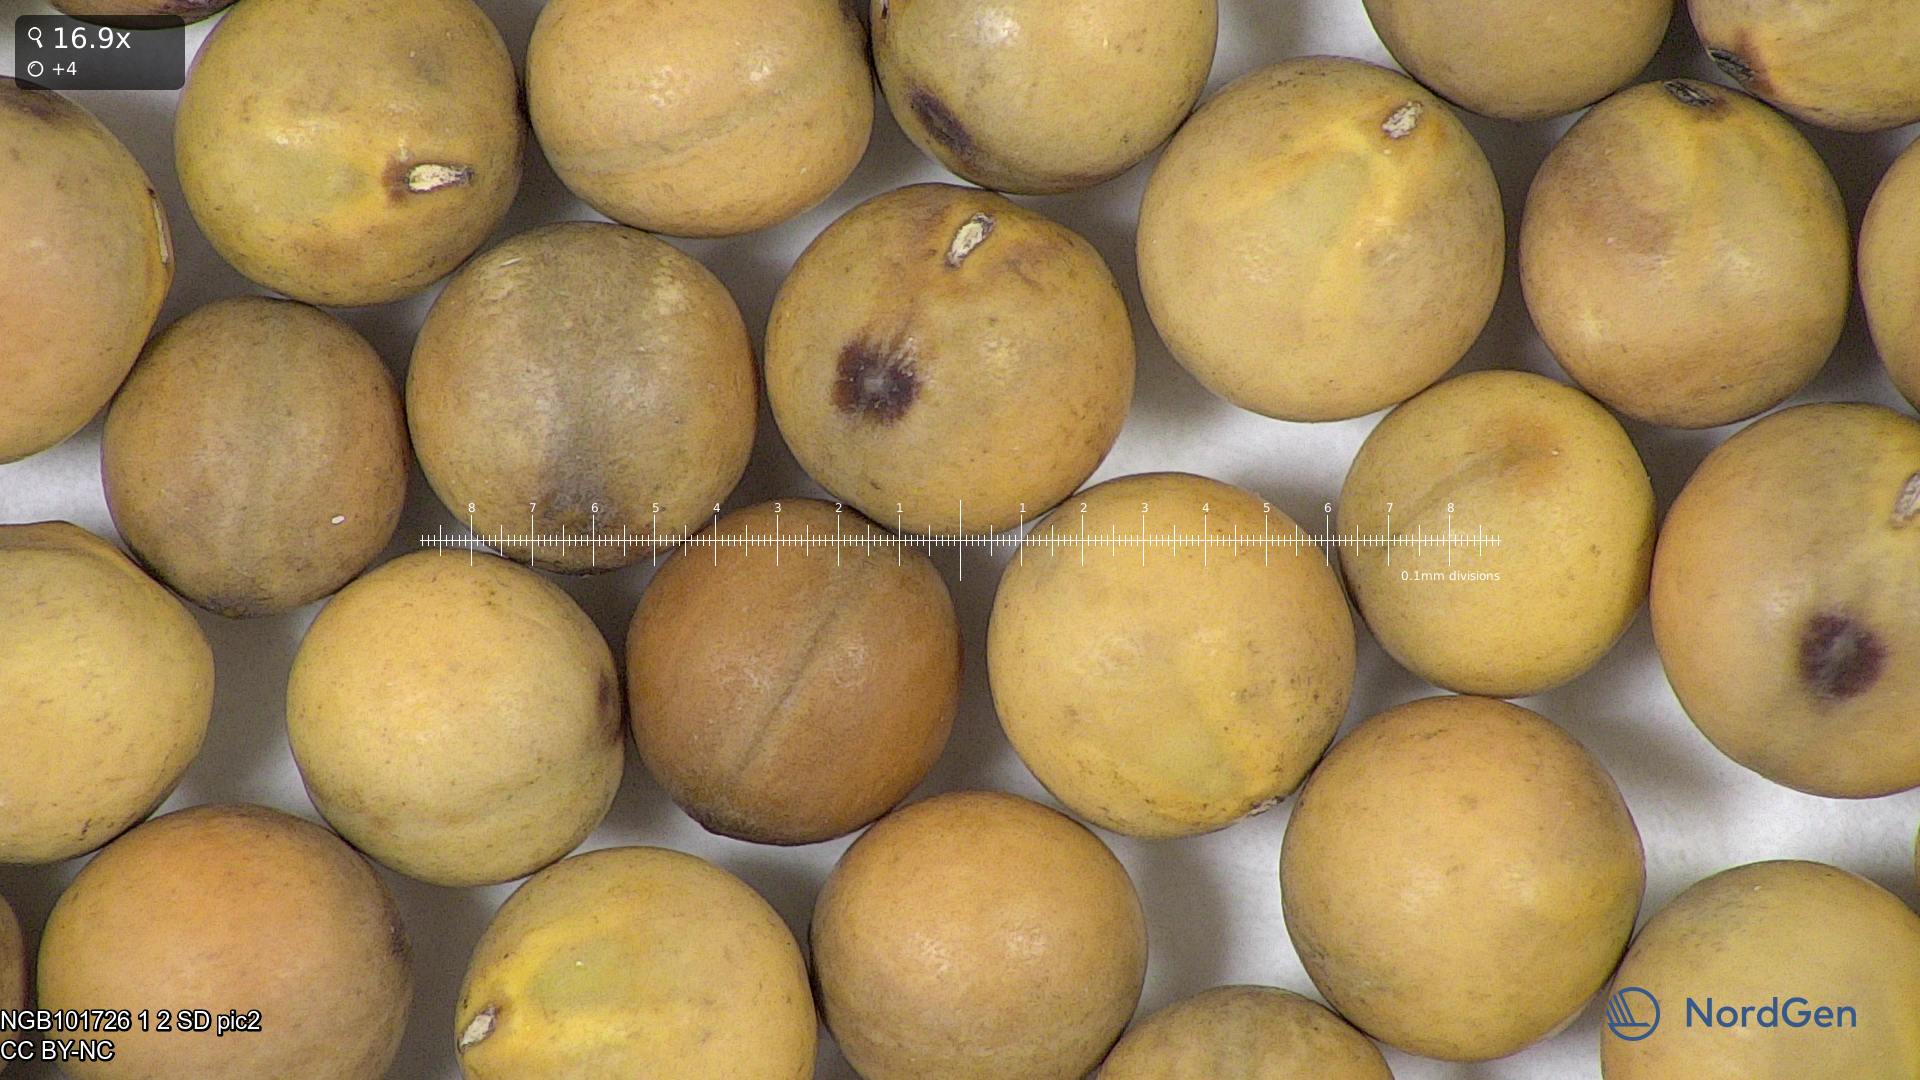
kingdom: Plantae
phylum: Tracheophyta
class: Magnoliopsida
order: Fabales
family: Fabaceae
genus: Lathyrus
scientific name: Lathyrus oleraceus
